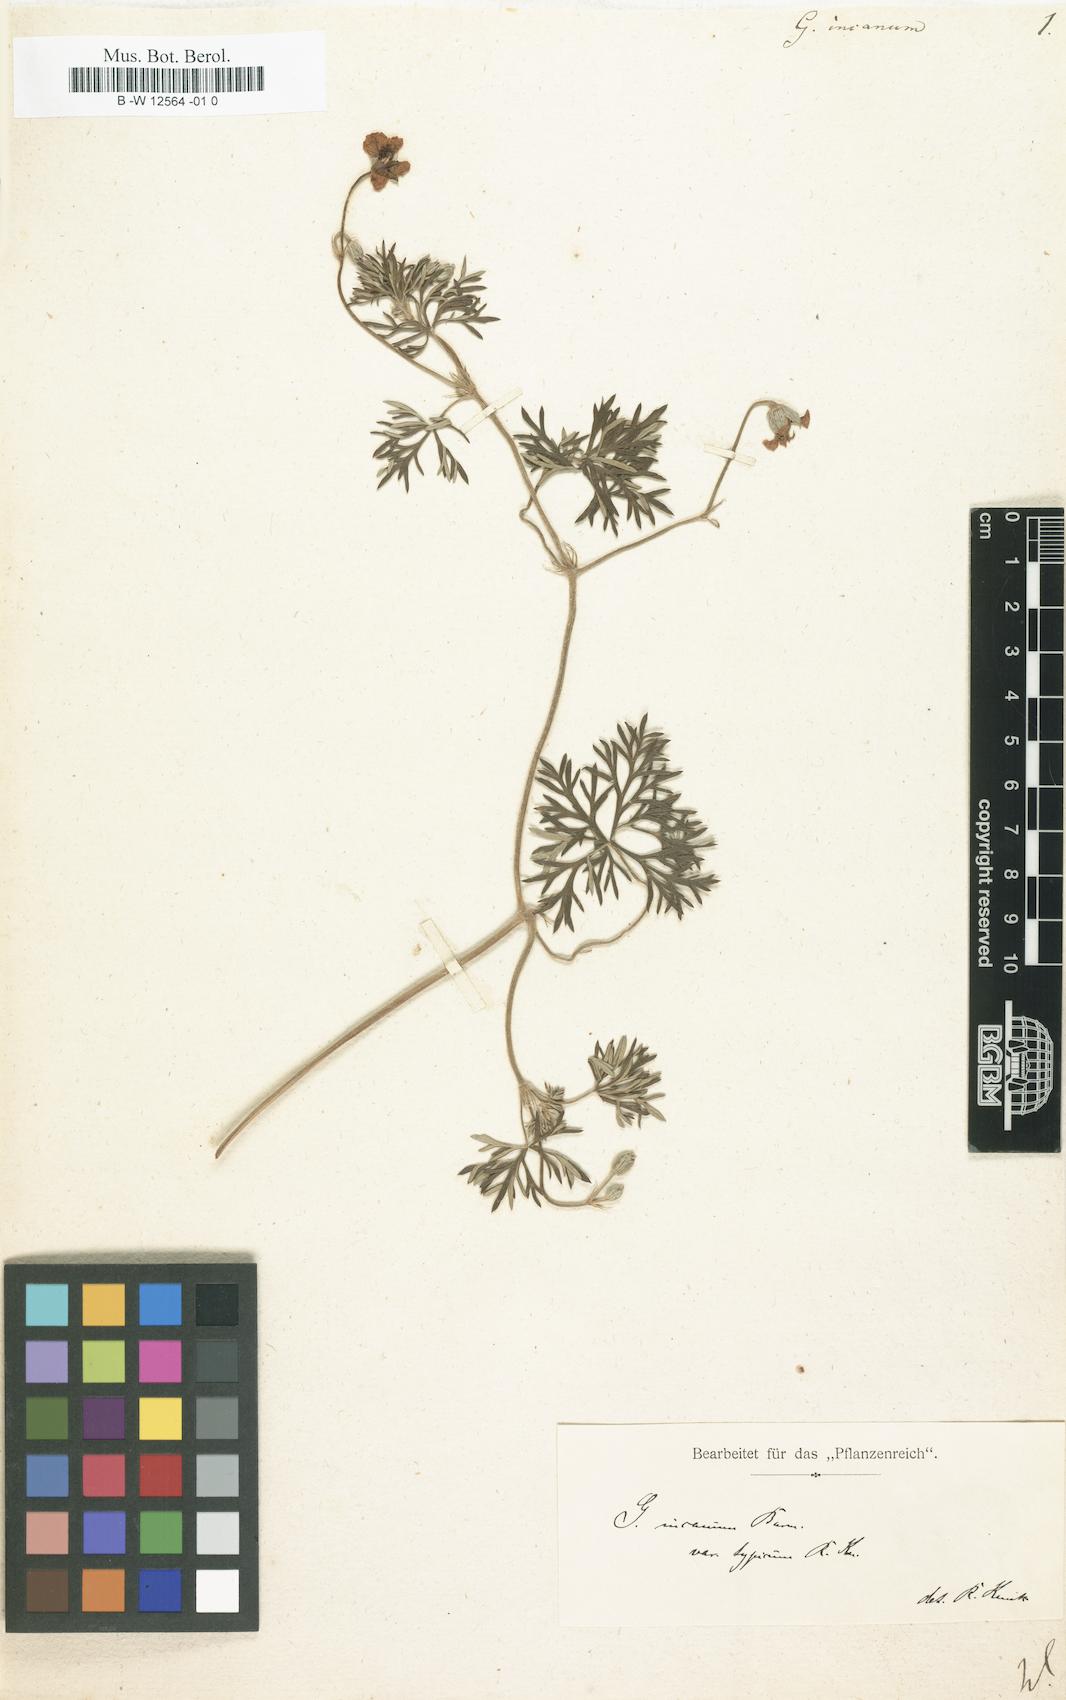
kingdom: Plantae
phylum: Tracheophyta
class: Magnoliopsida
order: Geraniales
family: Geraniaceae
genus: Geranium
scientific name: Geranium incanum
